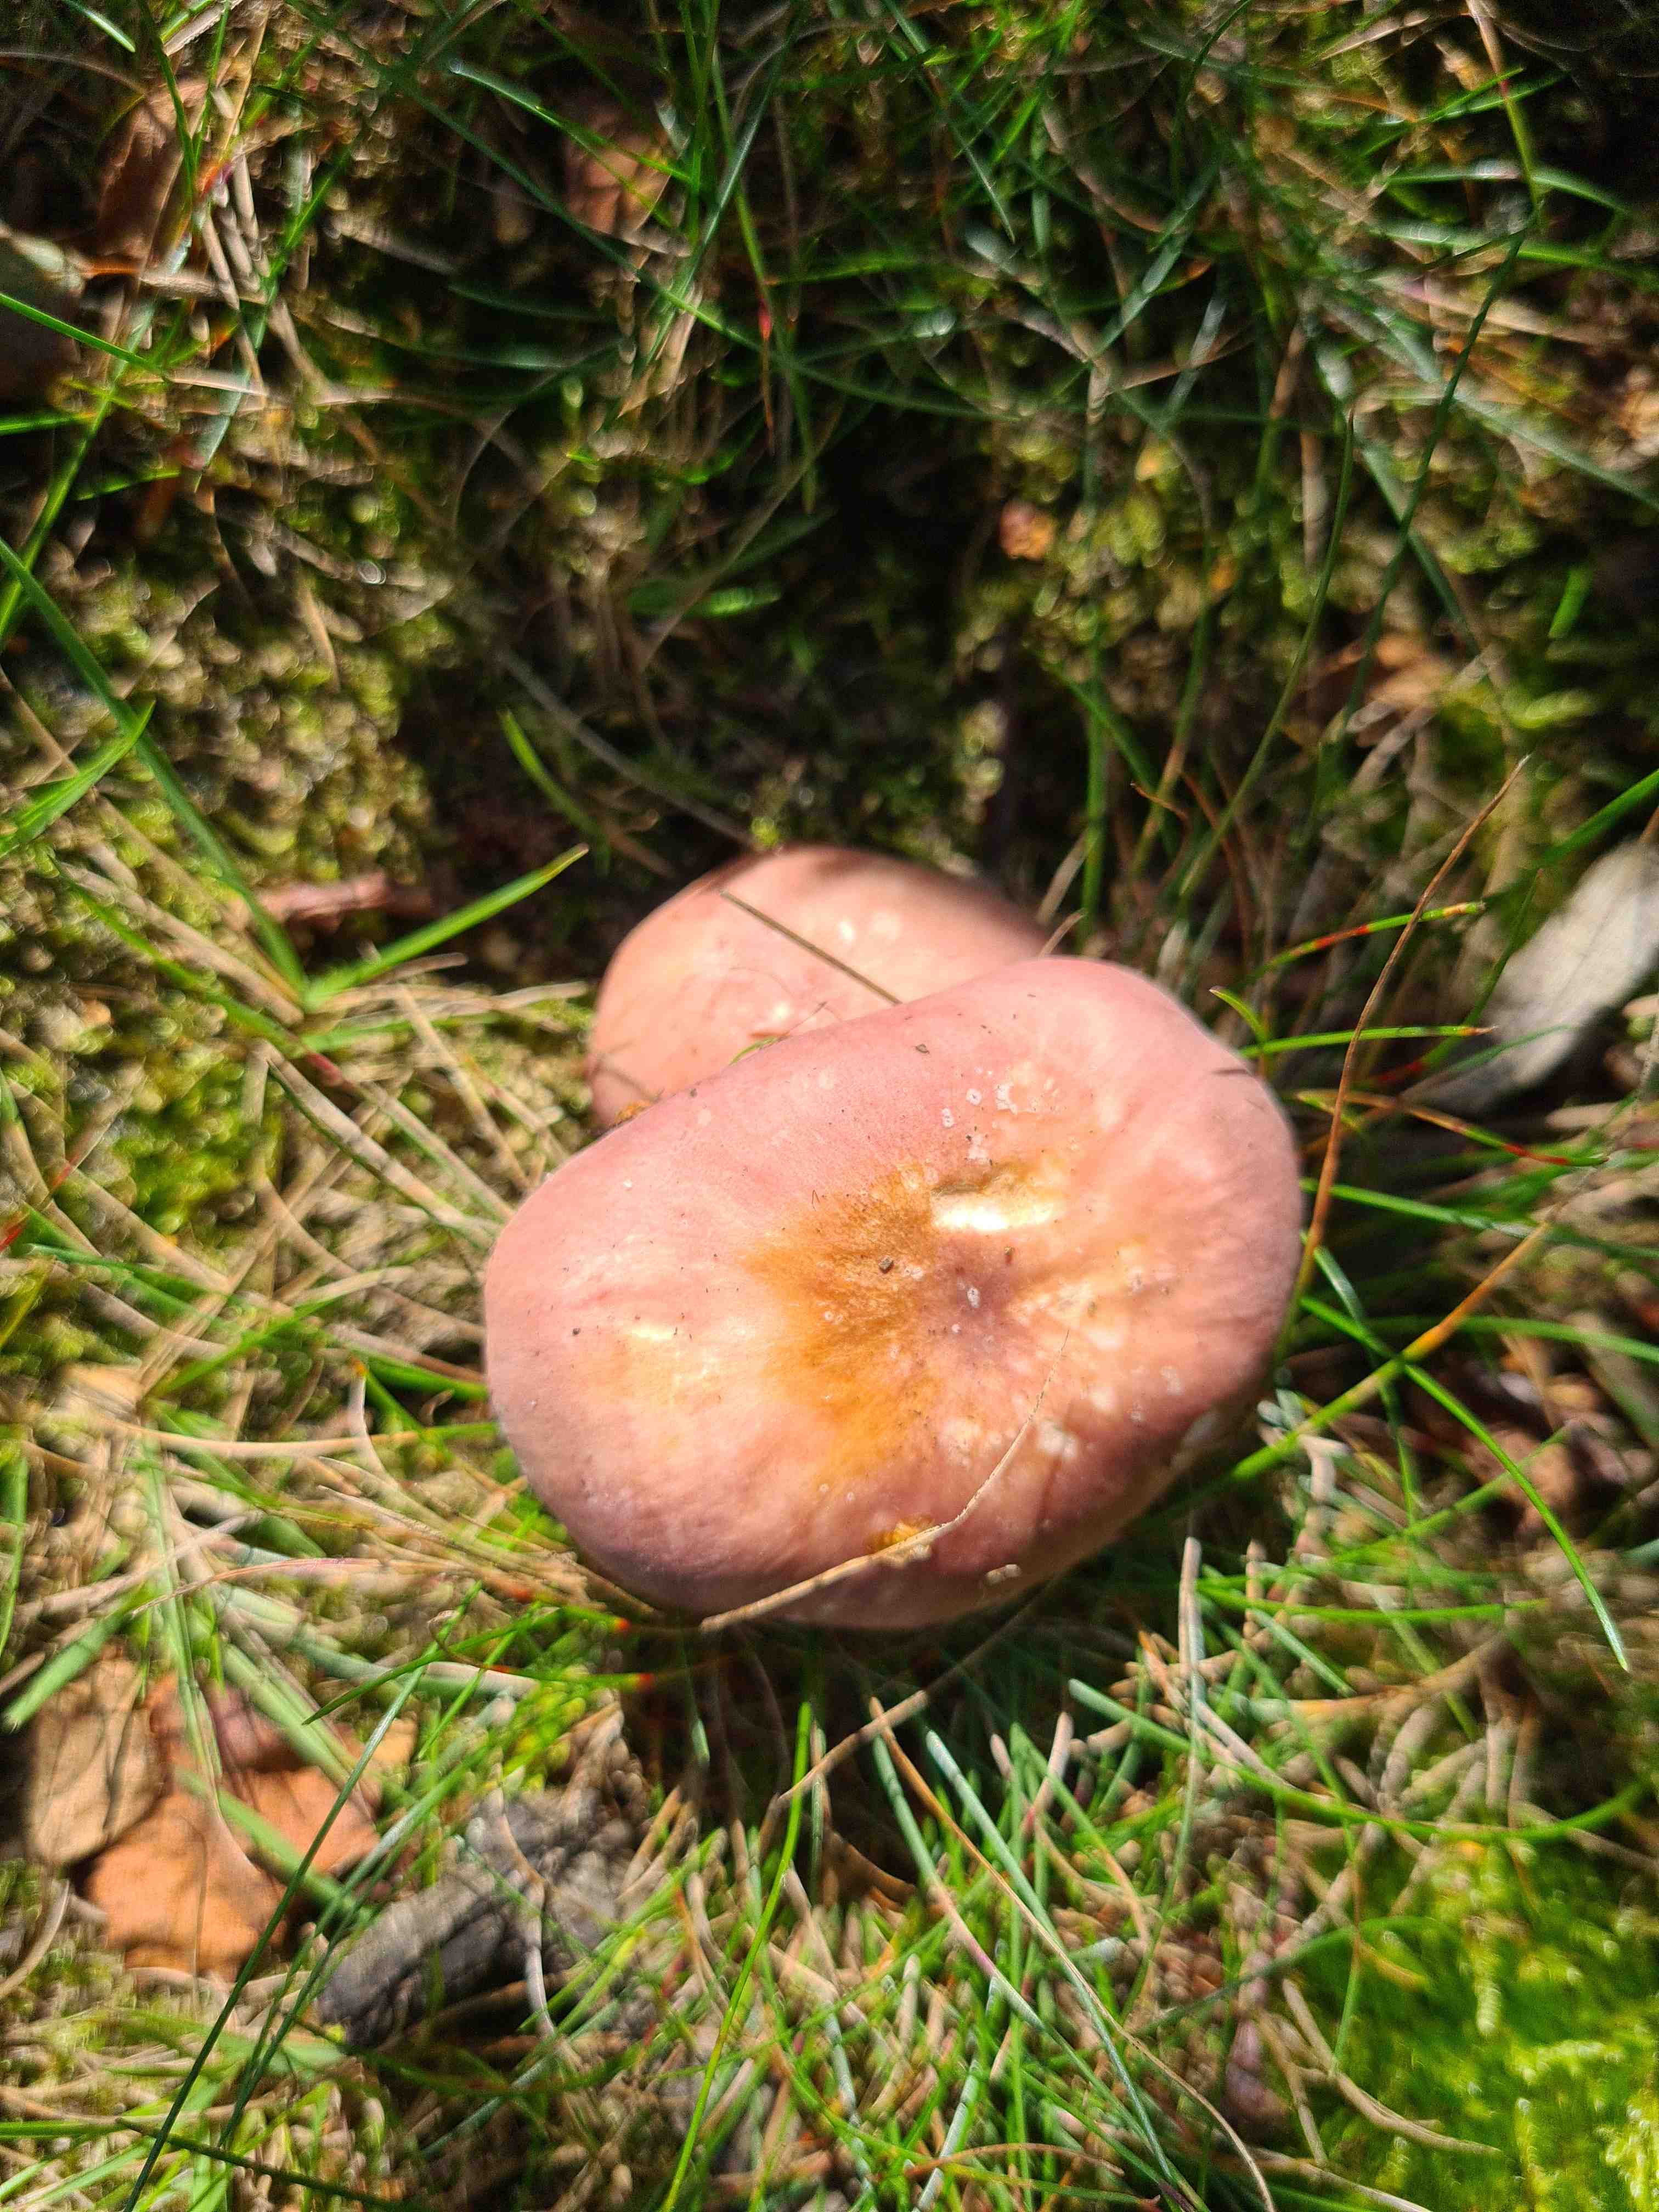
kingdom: Fungi
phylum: Basidiomycota
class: Agaricomycetes
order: Russulales
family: Russulaceae
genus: Russula
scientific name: Russula vesca
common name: spiselig skørhat
